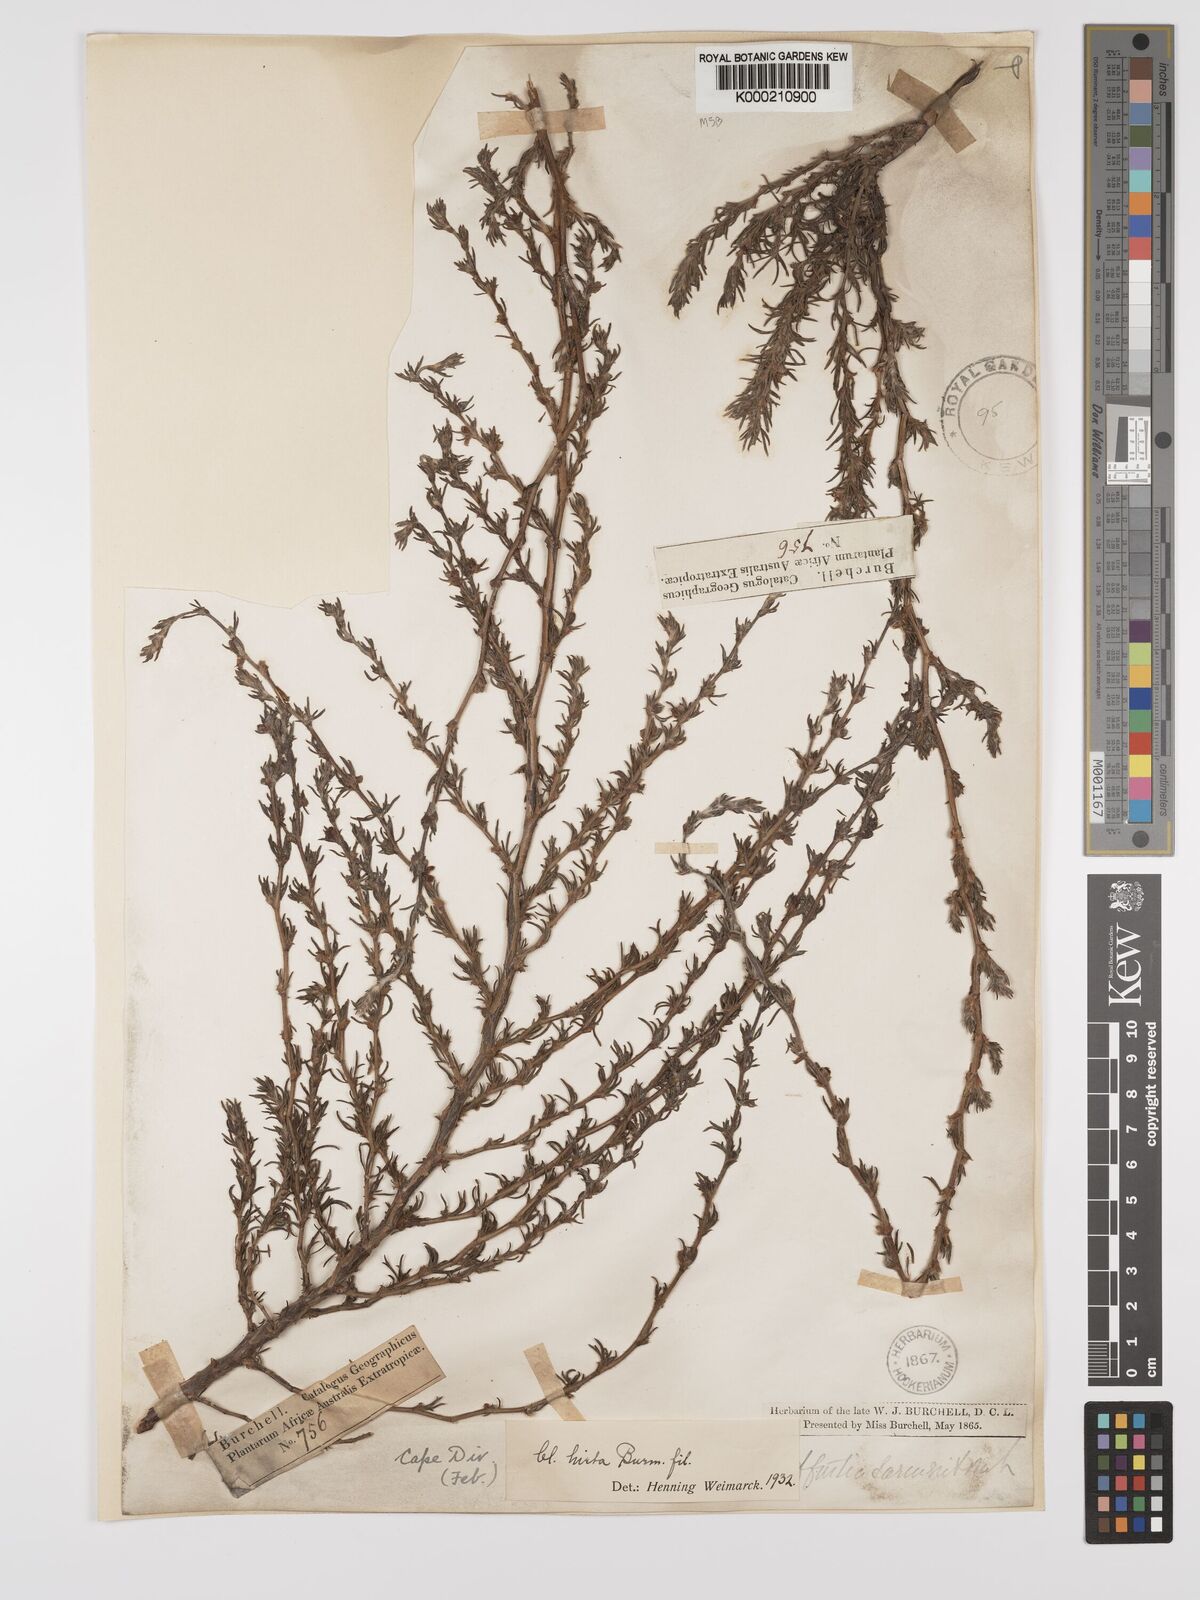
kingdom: Plantae
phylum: Tracheophyta
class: Magnoliopsida
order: Rosales
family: Rosaceae
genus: Cliffortia
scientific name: Cliffortia hirta
